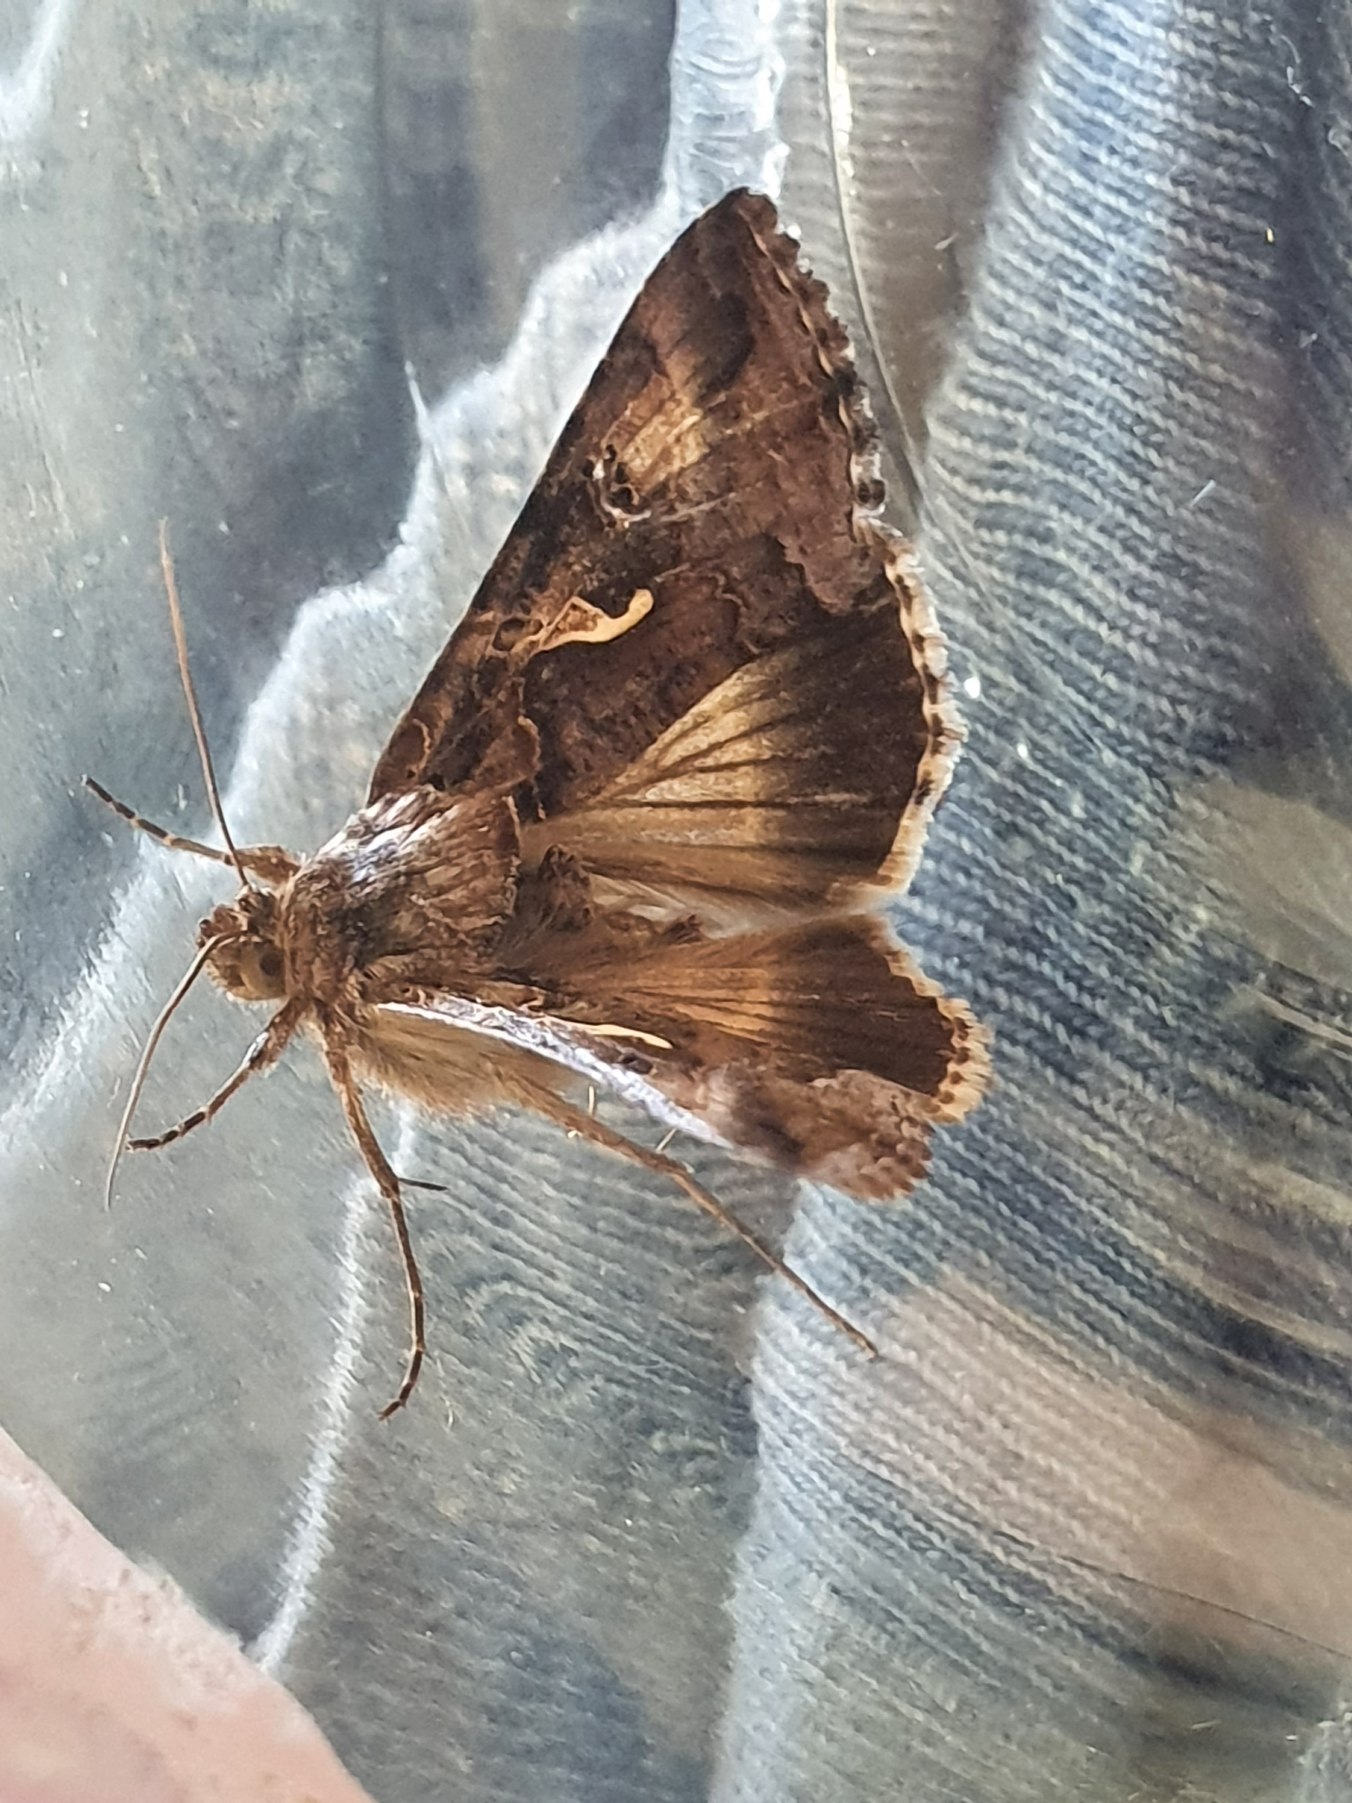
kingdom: Animalia
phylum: Arthropoda
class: Insecta
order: Lepidoptera
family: Noctuidae
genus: Autographa
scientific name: Autographa gamma
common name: Gammaugle
